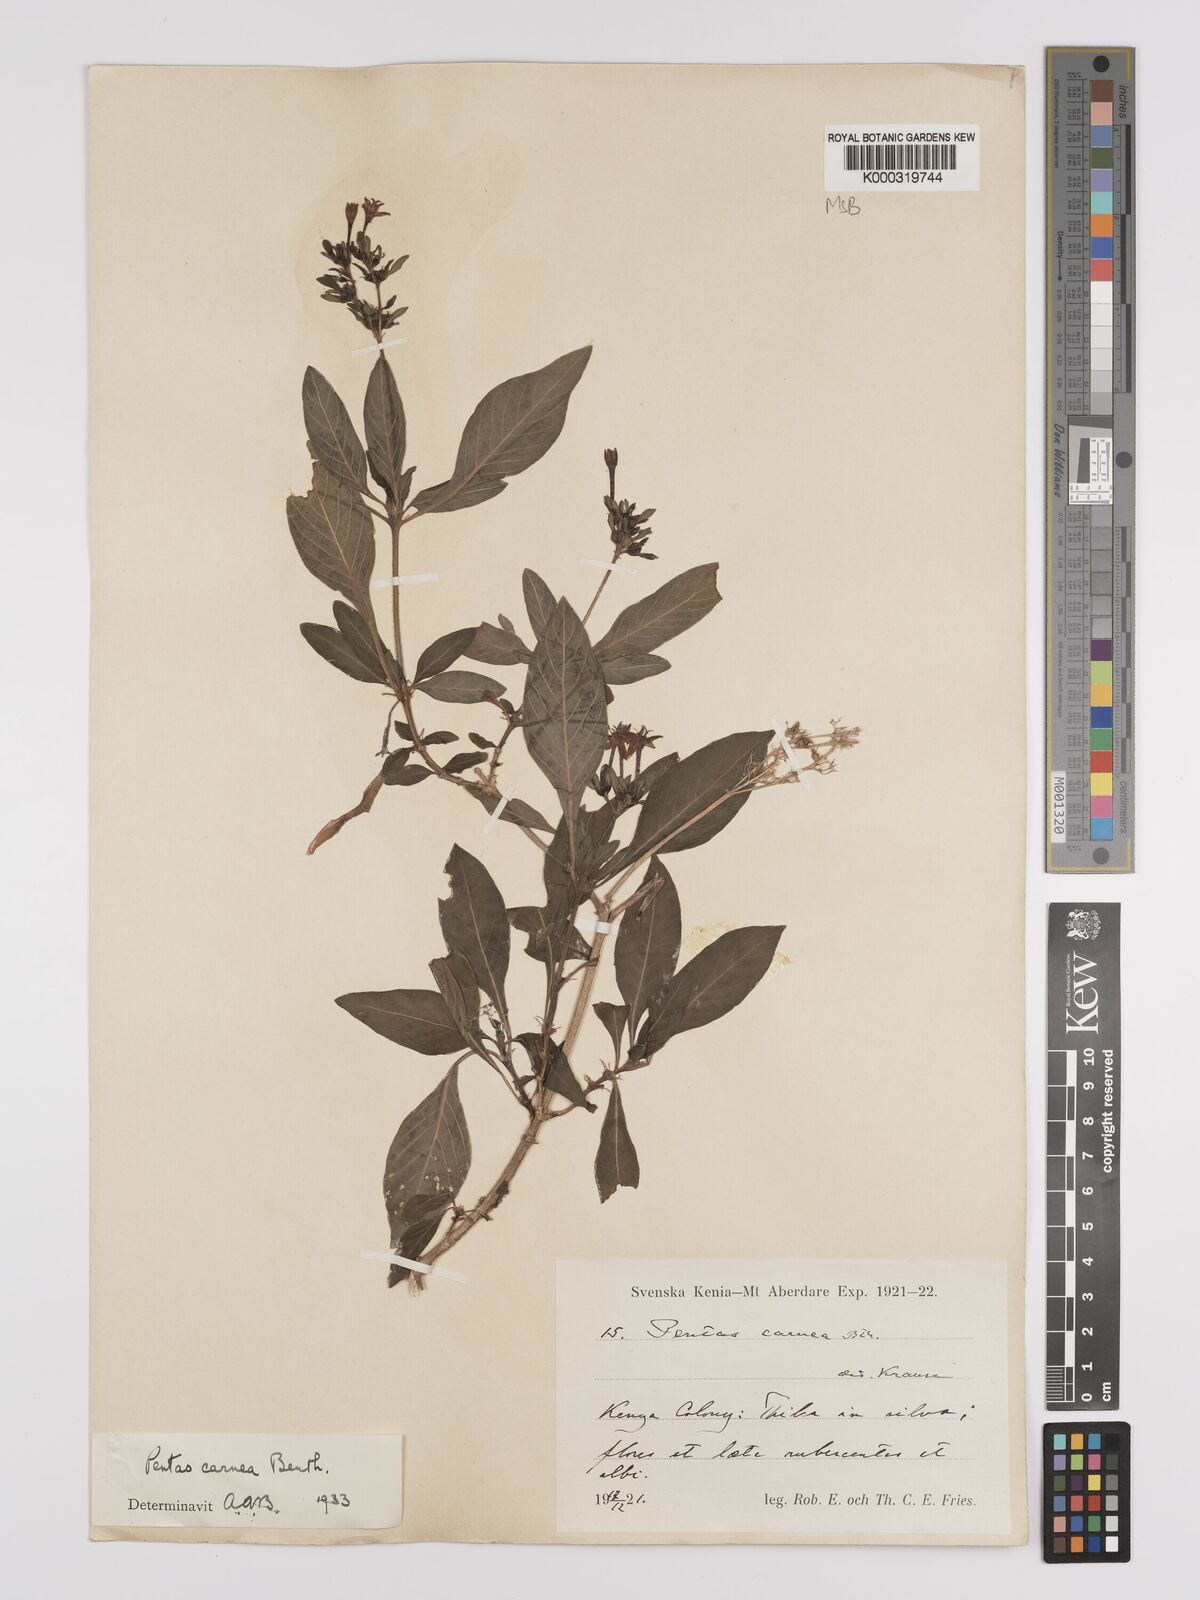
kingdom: Plantae
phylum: Tracheophyta
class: Magnoliopsida
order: Gentianales
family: Rubiaceae
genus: Pentas
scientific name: Pentas lanceolata
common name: Egyptian starcluster
